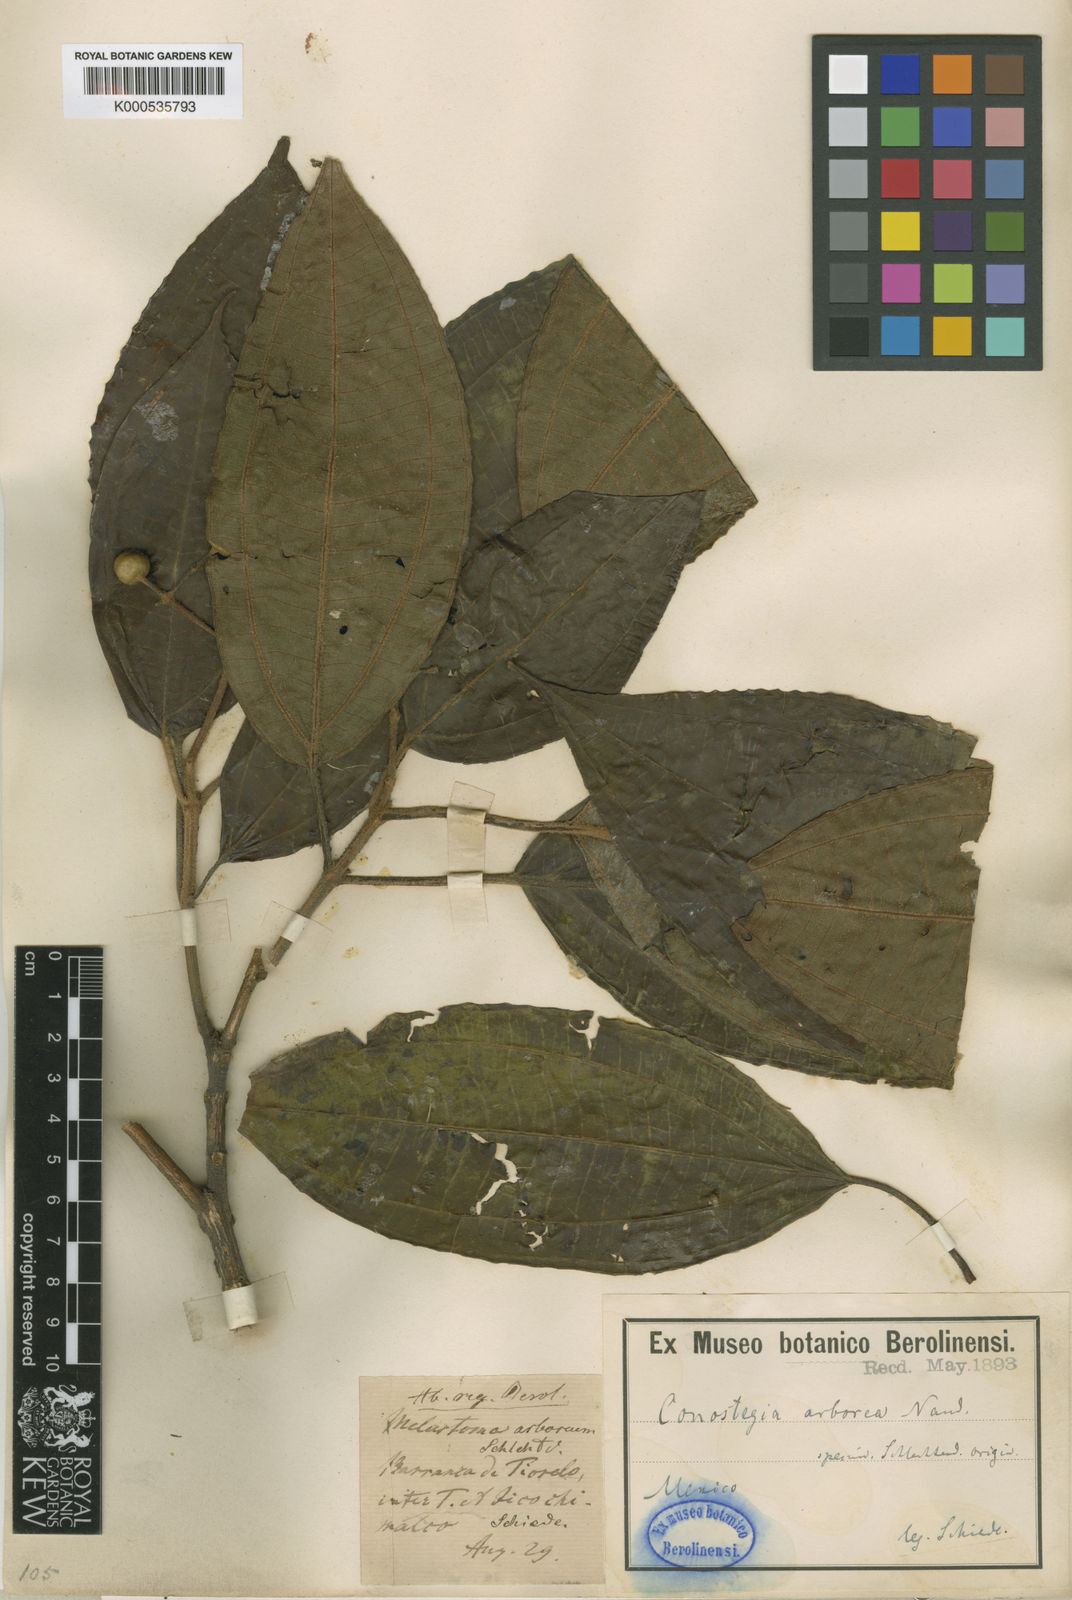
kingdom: Plantae
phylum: Tracheophyta
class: Magnoliopsida
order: Myrtales
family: Melastomataceae
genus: Miconia
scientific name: Miconia
